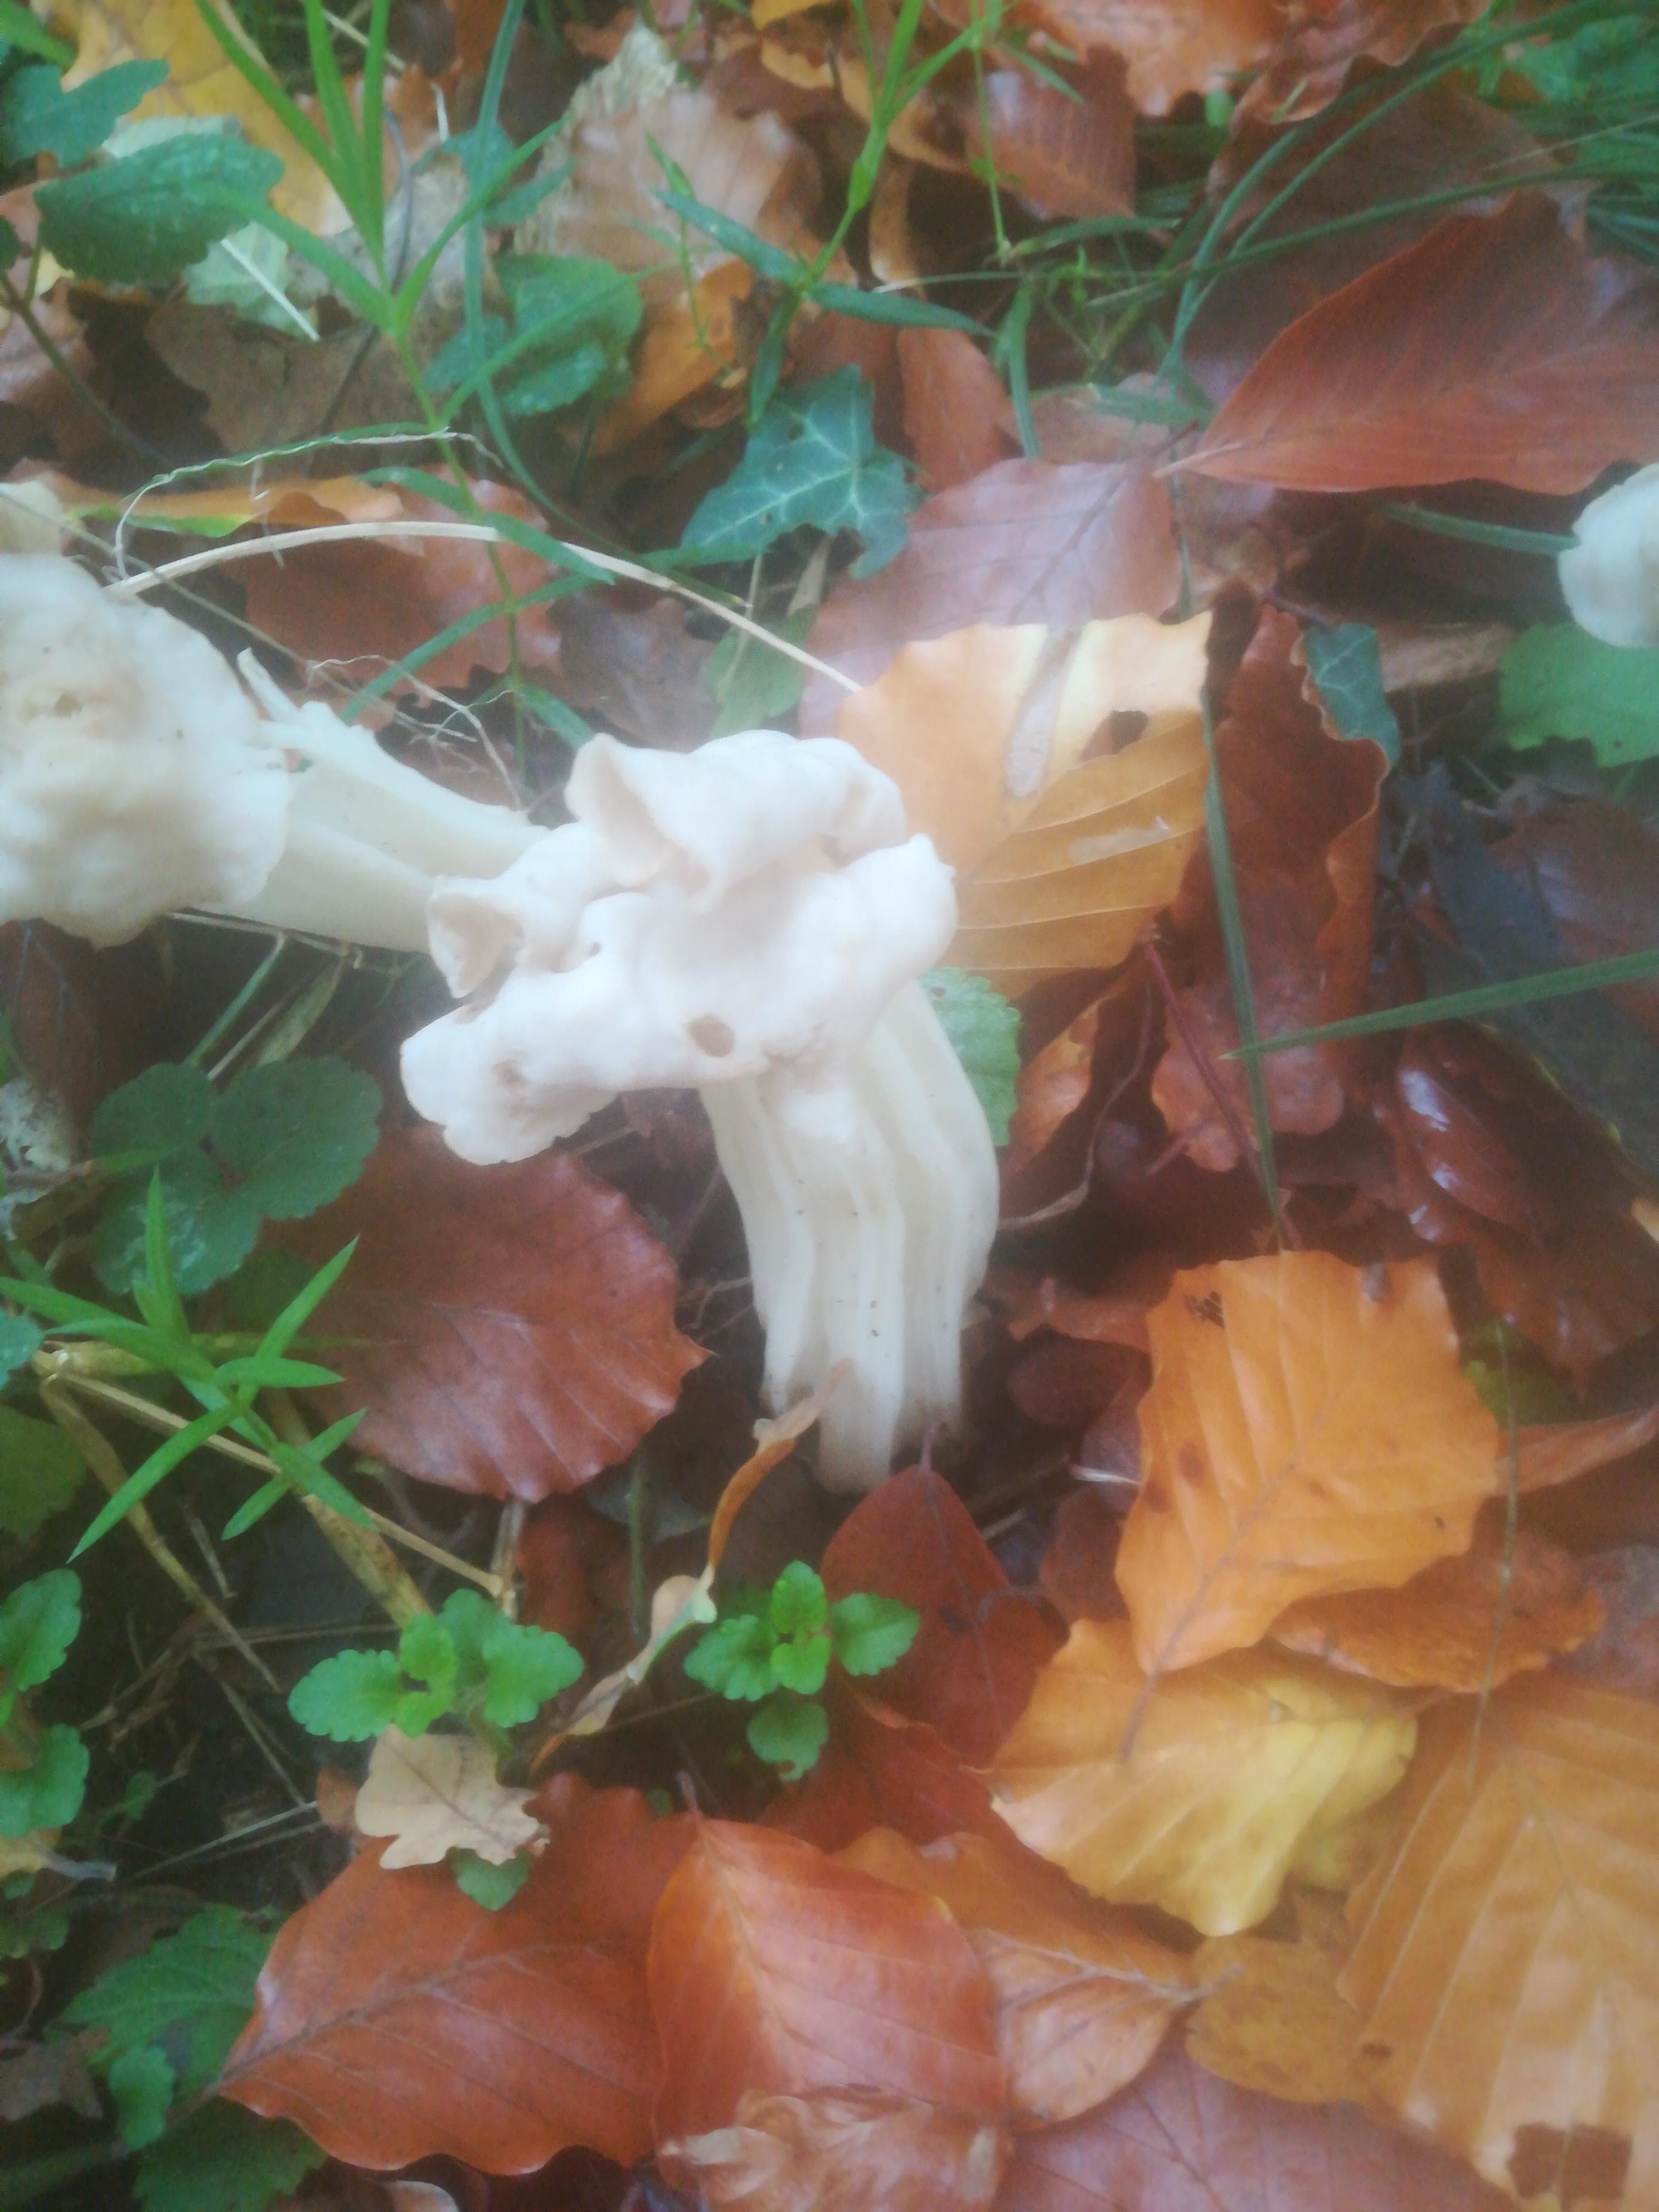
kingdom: Fungi
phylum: Ascomycota
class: Pezizomycetes
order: Pezizales
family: Helvellaceae
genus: Helvella
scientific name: Helvella crispa
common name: kruset foldhat
